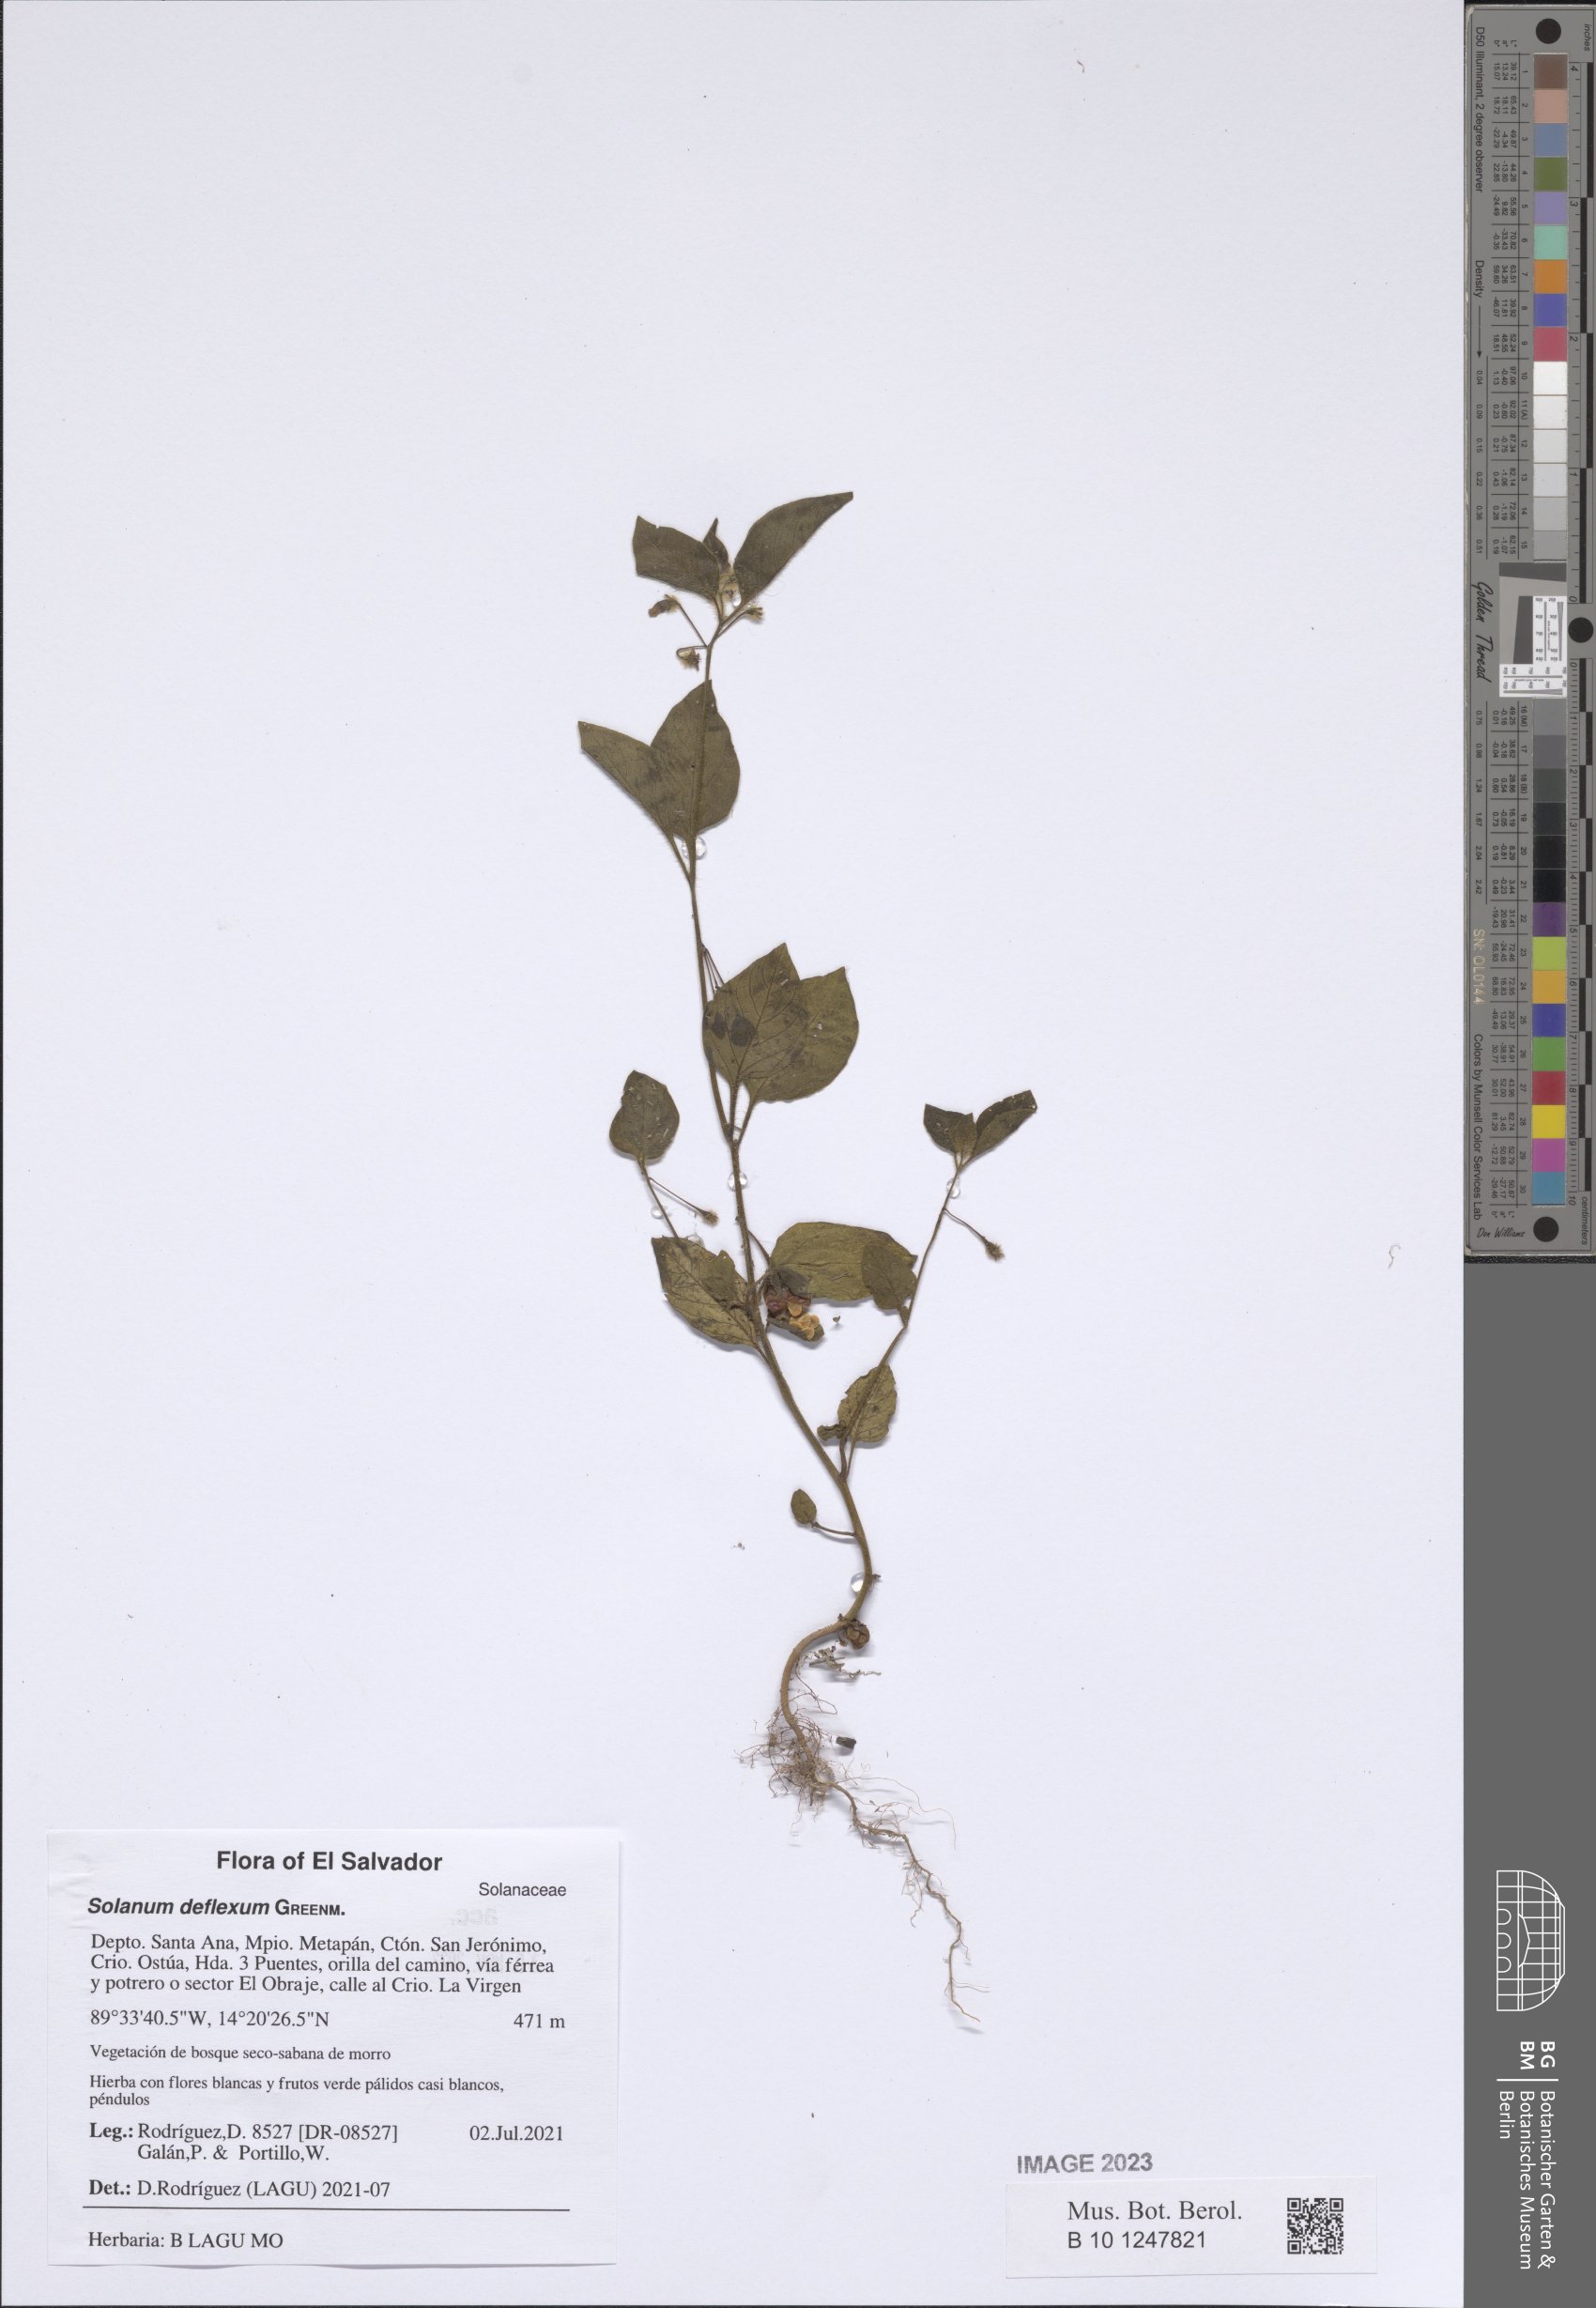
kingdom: Plantae
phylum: Tracheophyta
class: Magnoliopsida
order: Solanales
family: Solanaceae
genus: Solanum
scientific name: Solanum deflexum
